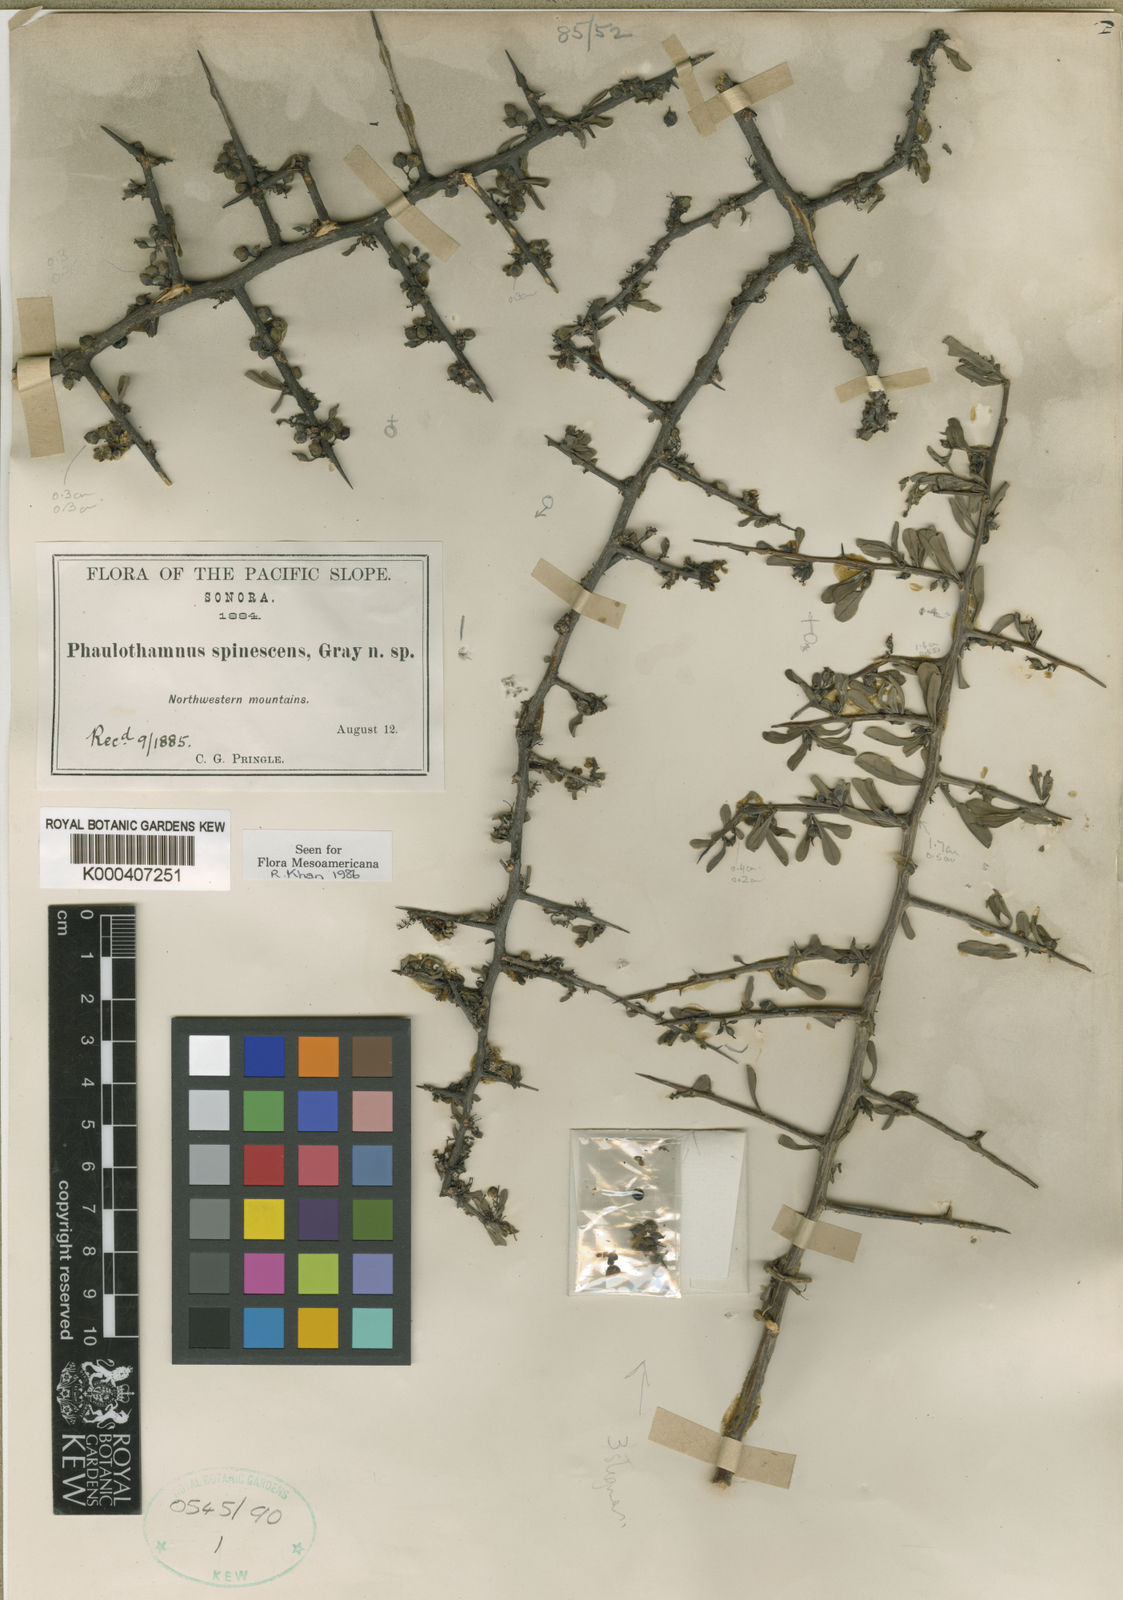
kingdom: Plantae
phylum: Tracheophyta
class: Magnoliopsida
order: Caryophyllales
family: Achatocarpaceae
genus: Phaulothamnus
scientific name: Phaulothamnus spinescens
